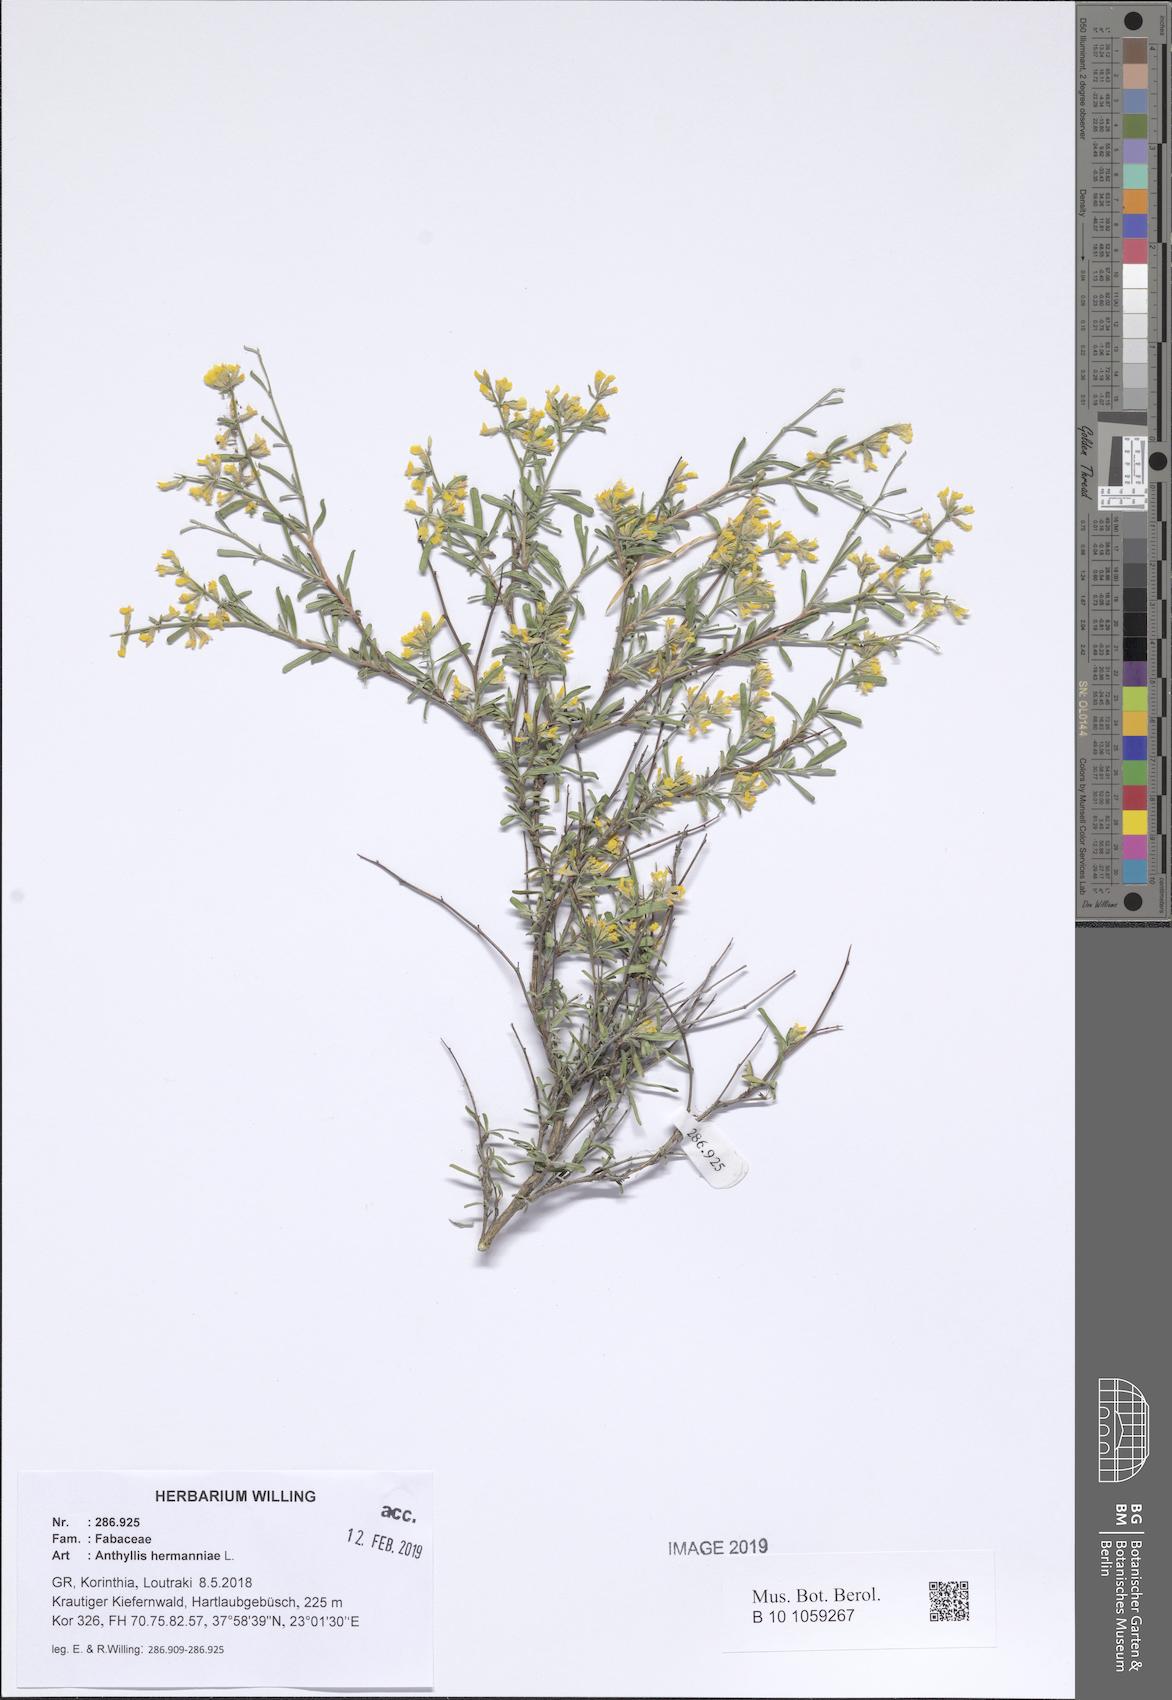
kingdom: Plantae
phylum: Tracheophyta
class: Magnoliopsida
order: Fabales
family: Fabaceae
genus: Anthyllis
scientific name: Anthyllis hermanniae
